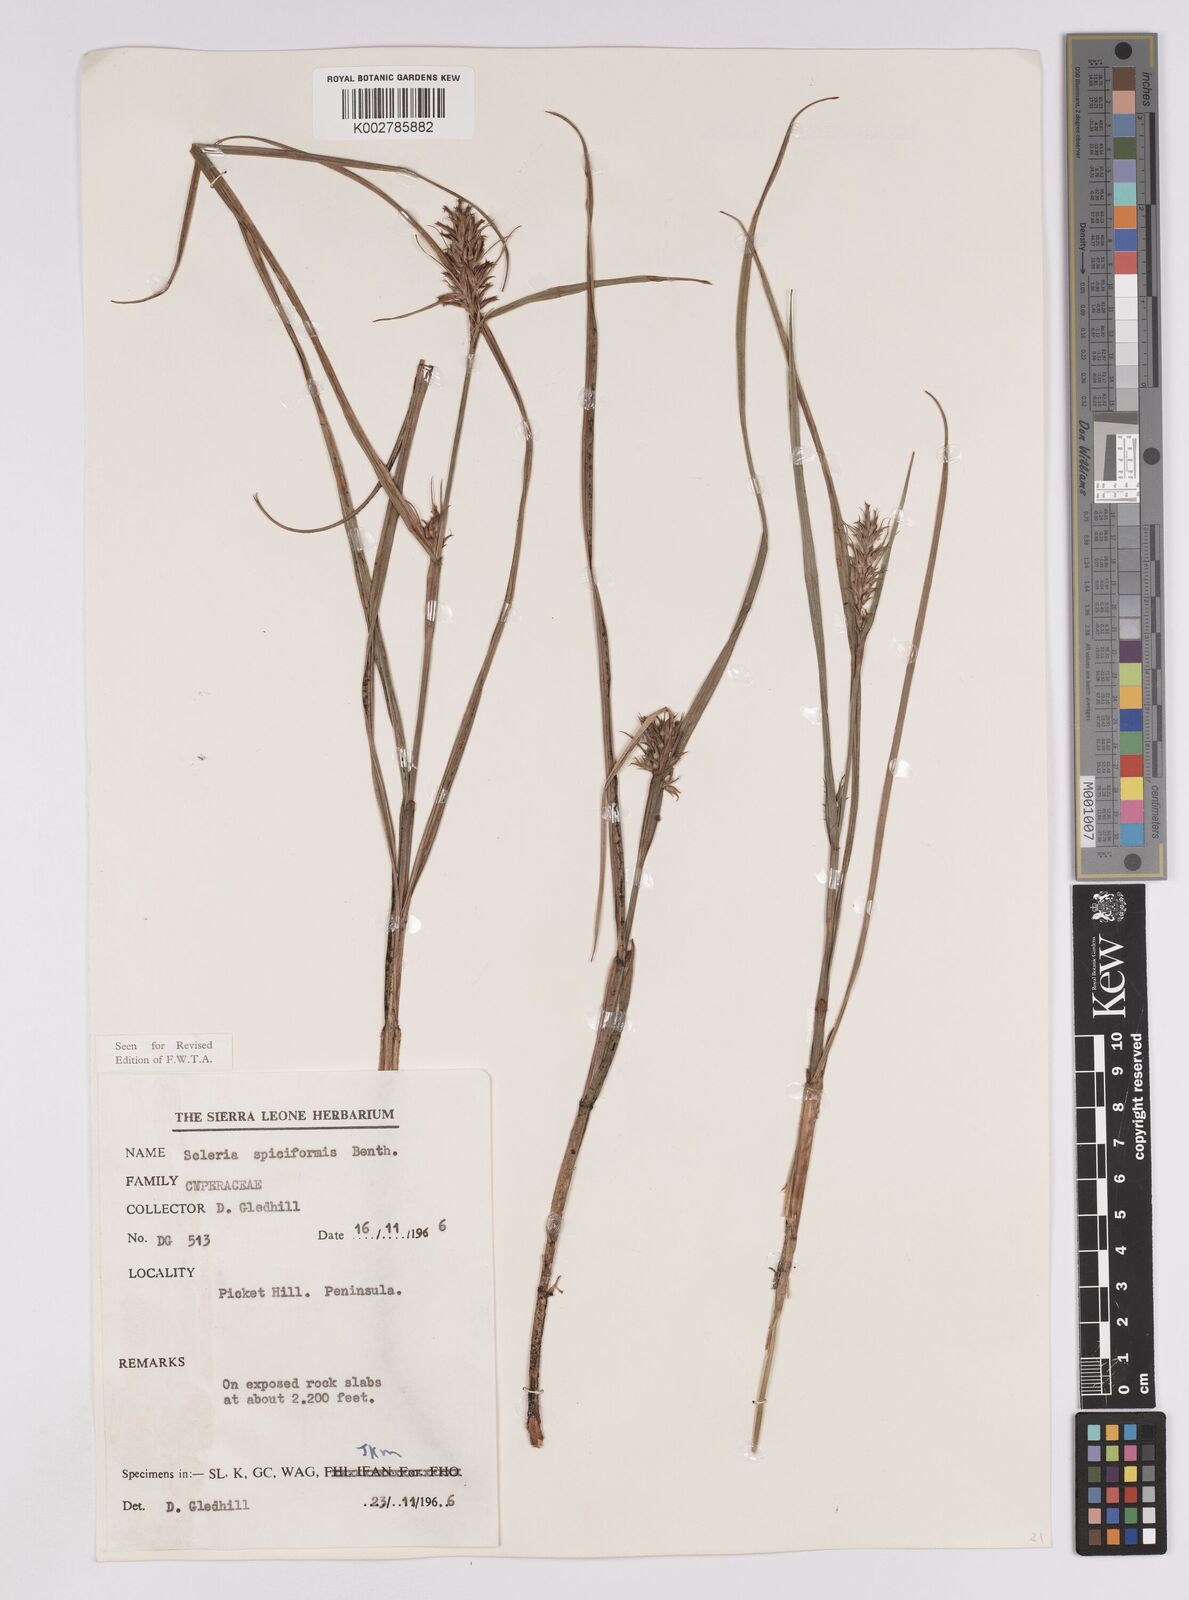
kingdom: Plantae
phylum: Tracheophyta
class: Liliopsida
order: Poales
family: Cyperaceae
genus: Scleria
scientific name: Scleria spiciformis
